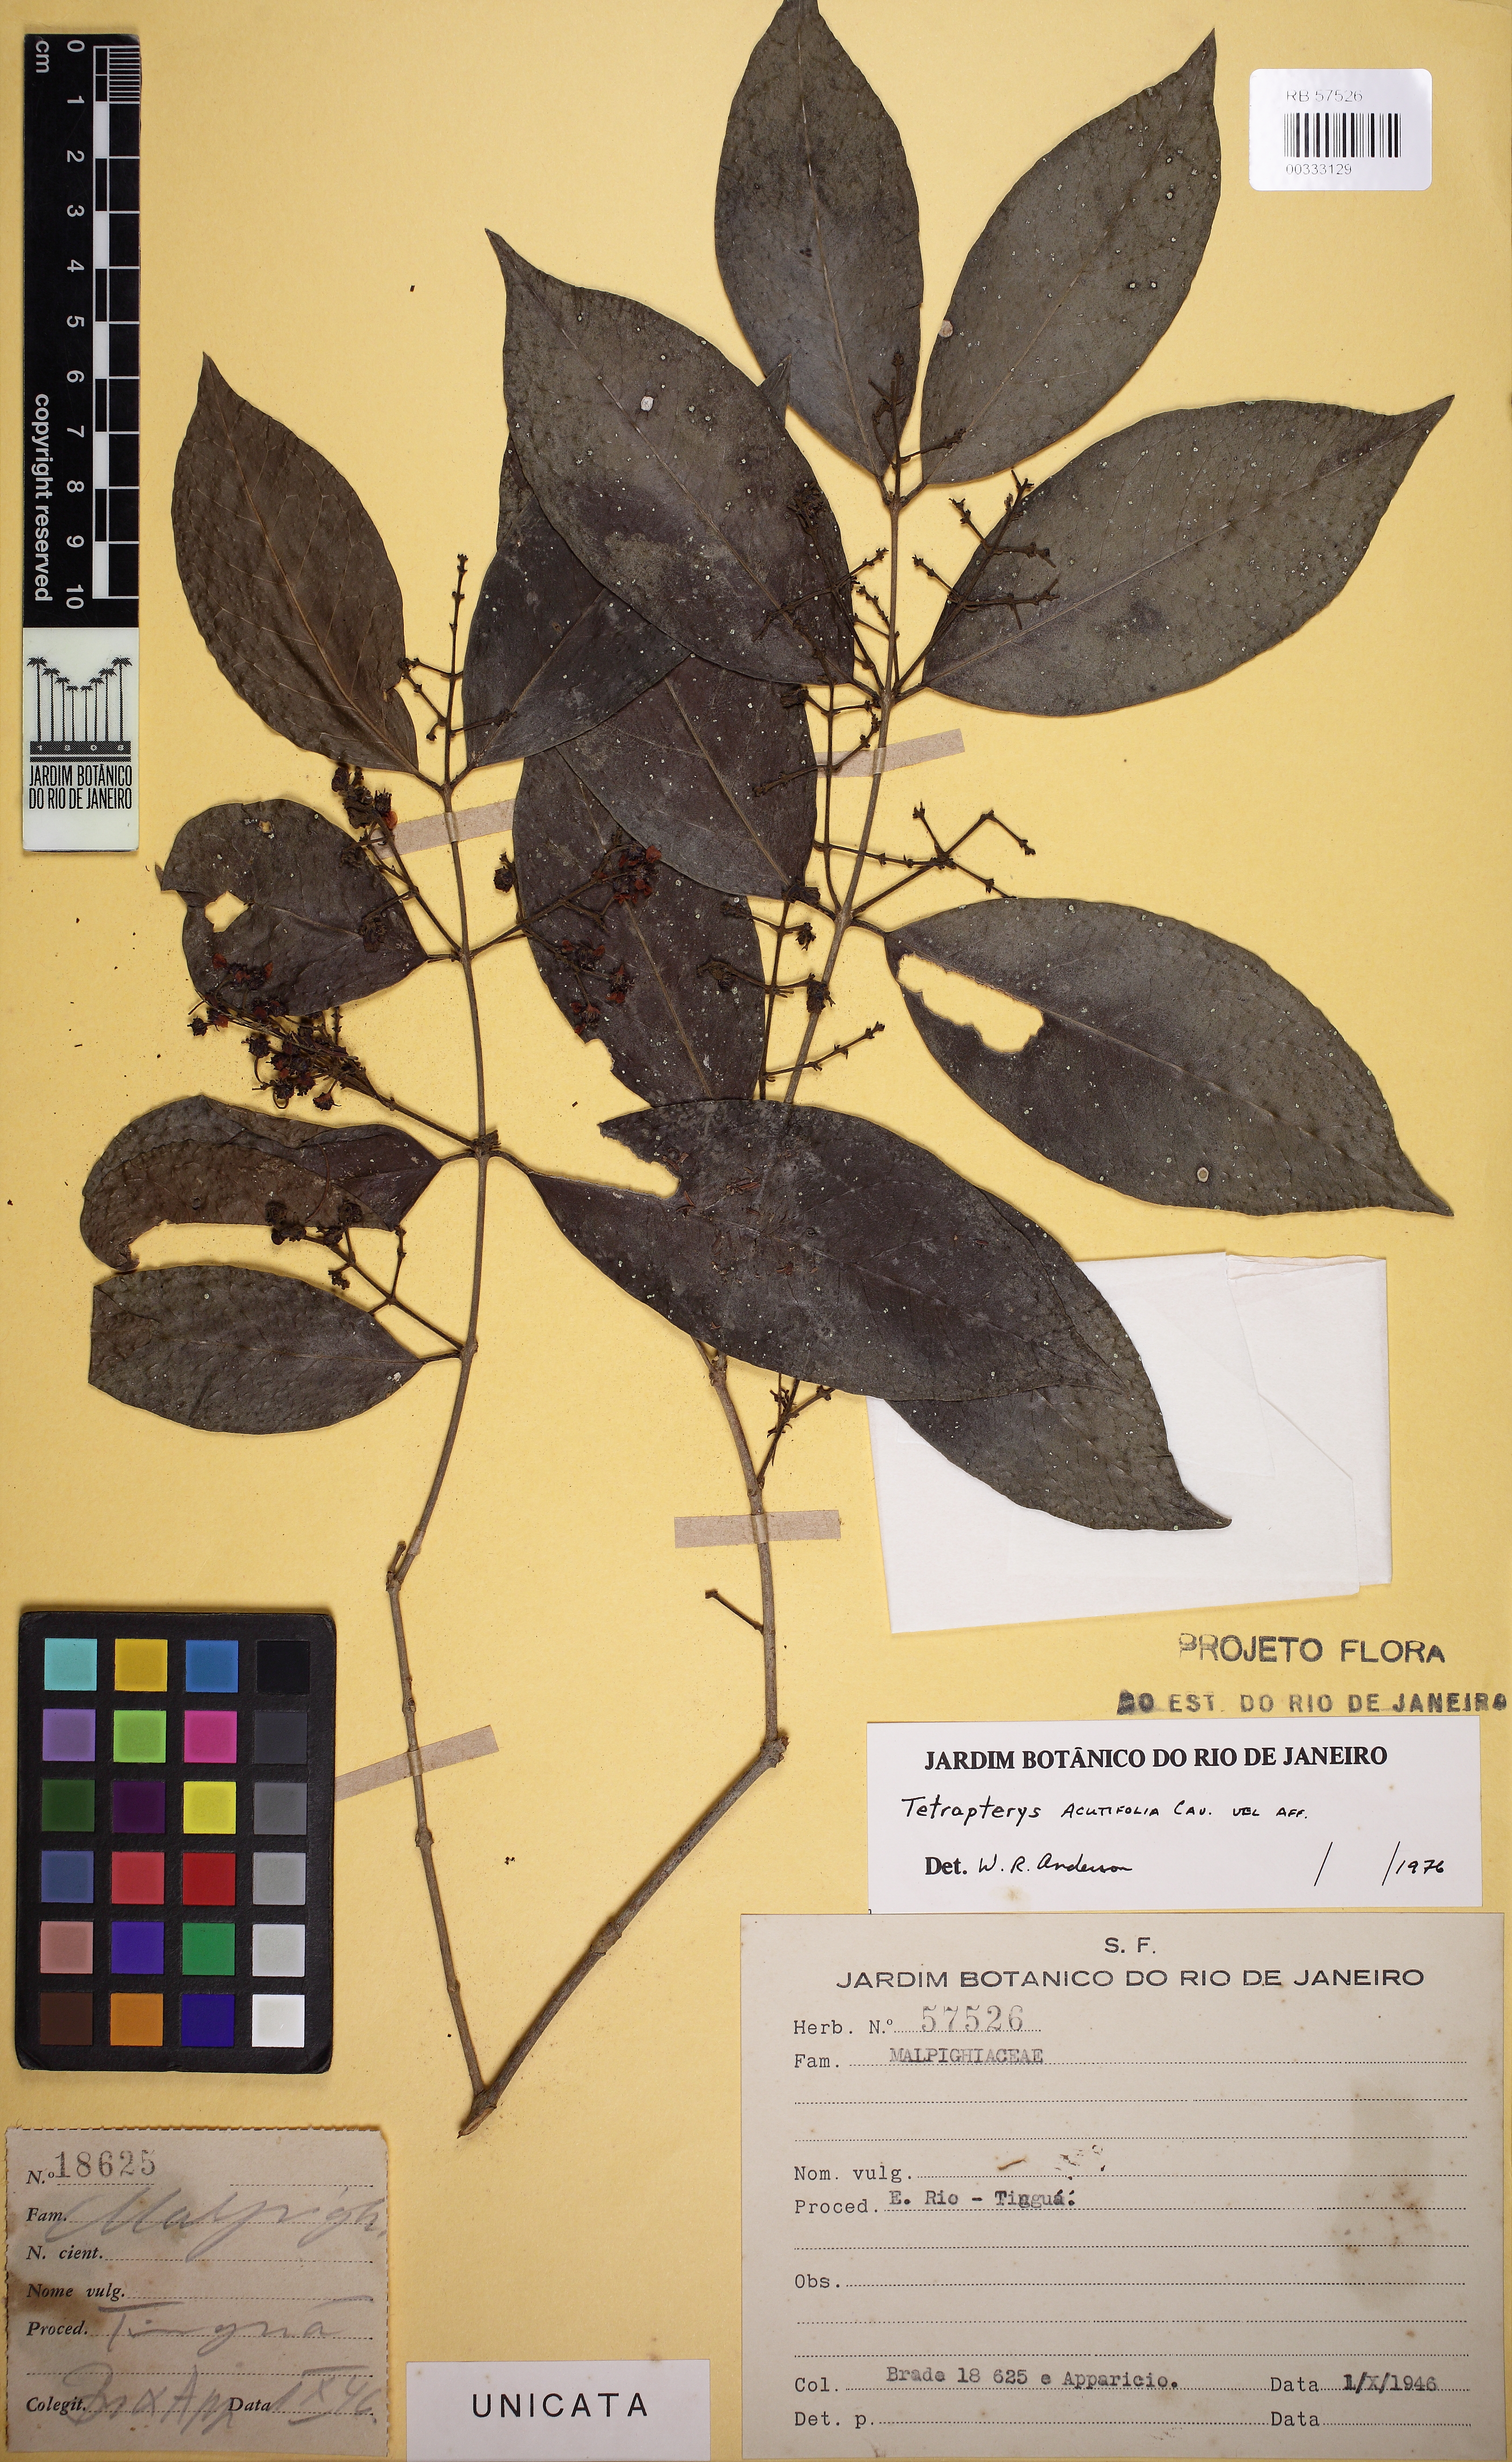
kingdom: Plantae
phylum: Tracheophyta
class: Magnoliopsida
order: Malpighiales
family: Malpighiaceae
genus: Niedenzuella
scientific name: Niedenzuella acutifolia
